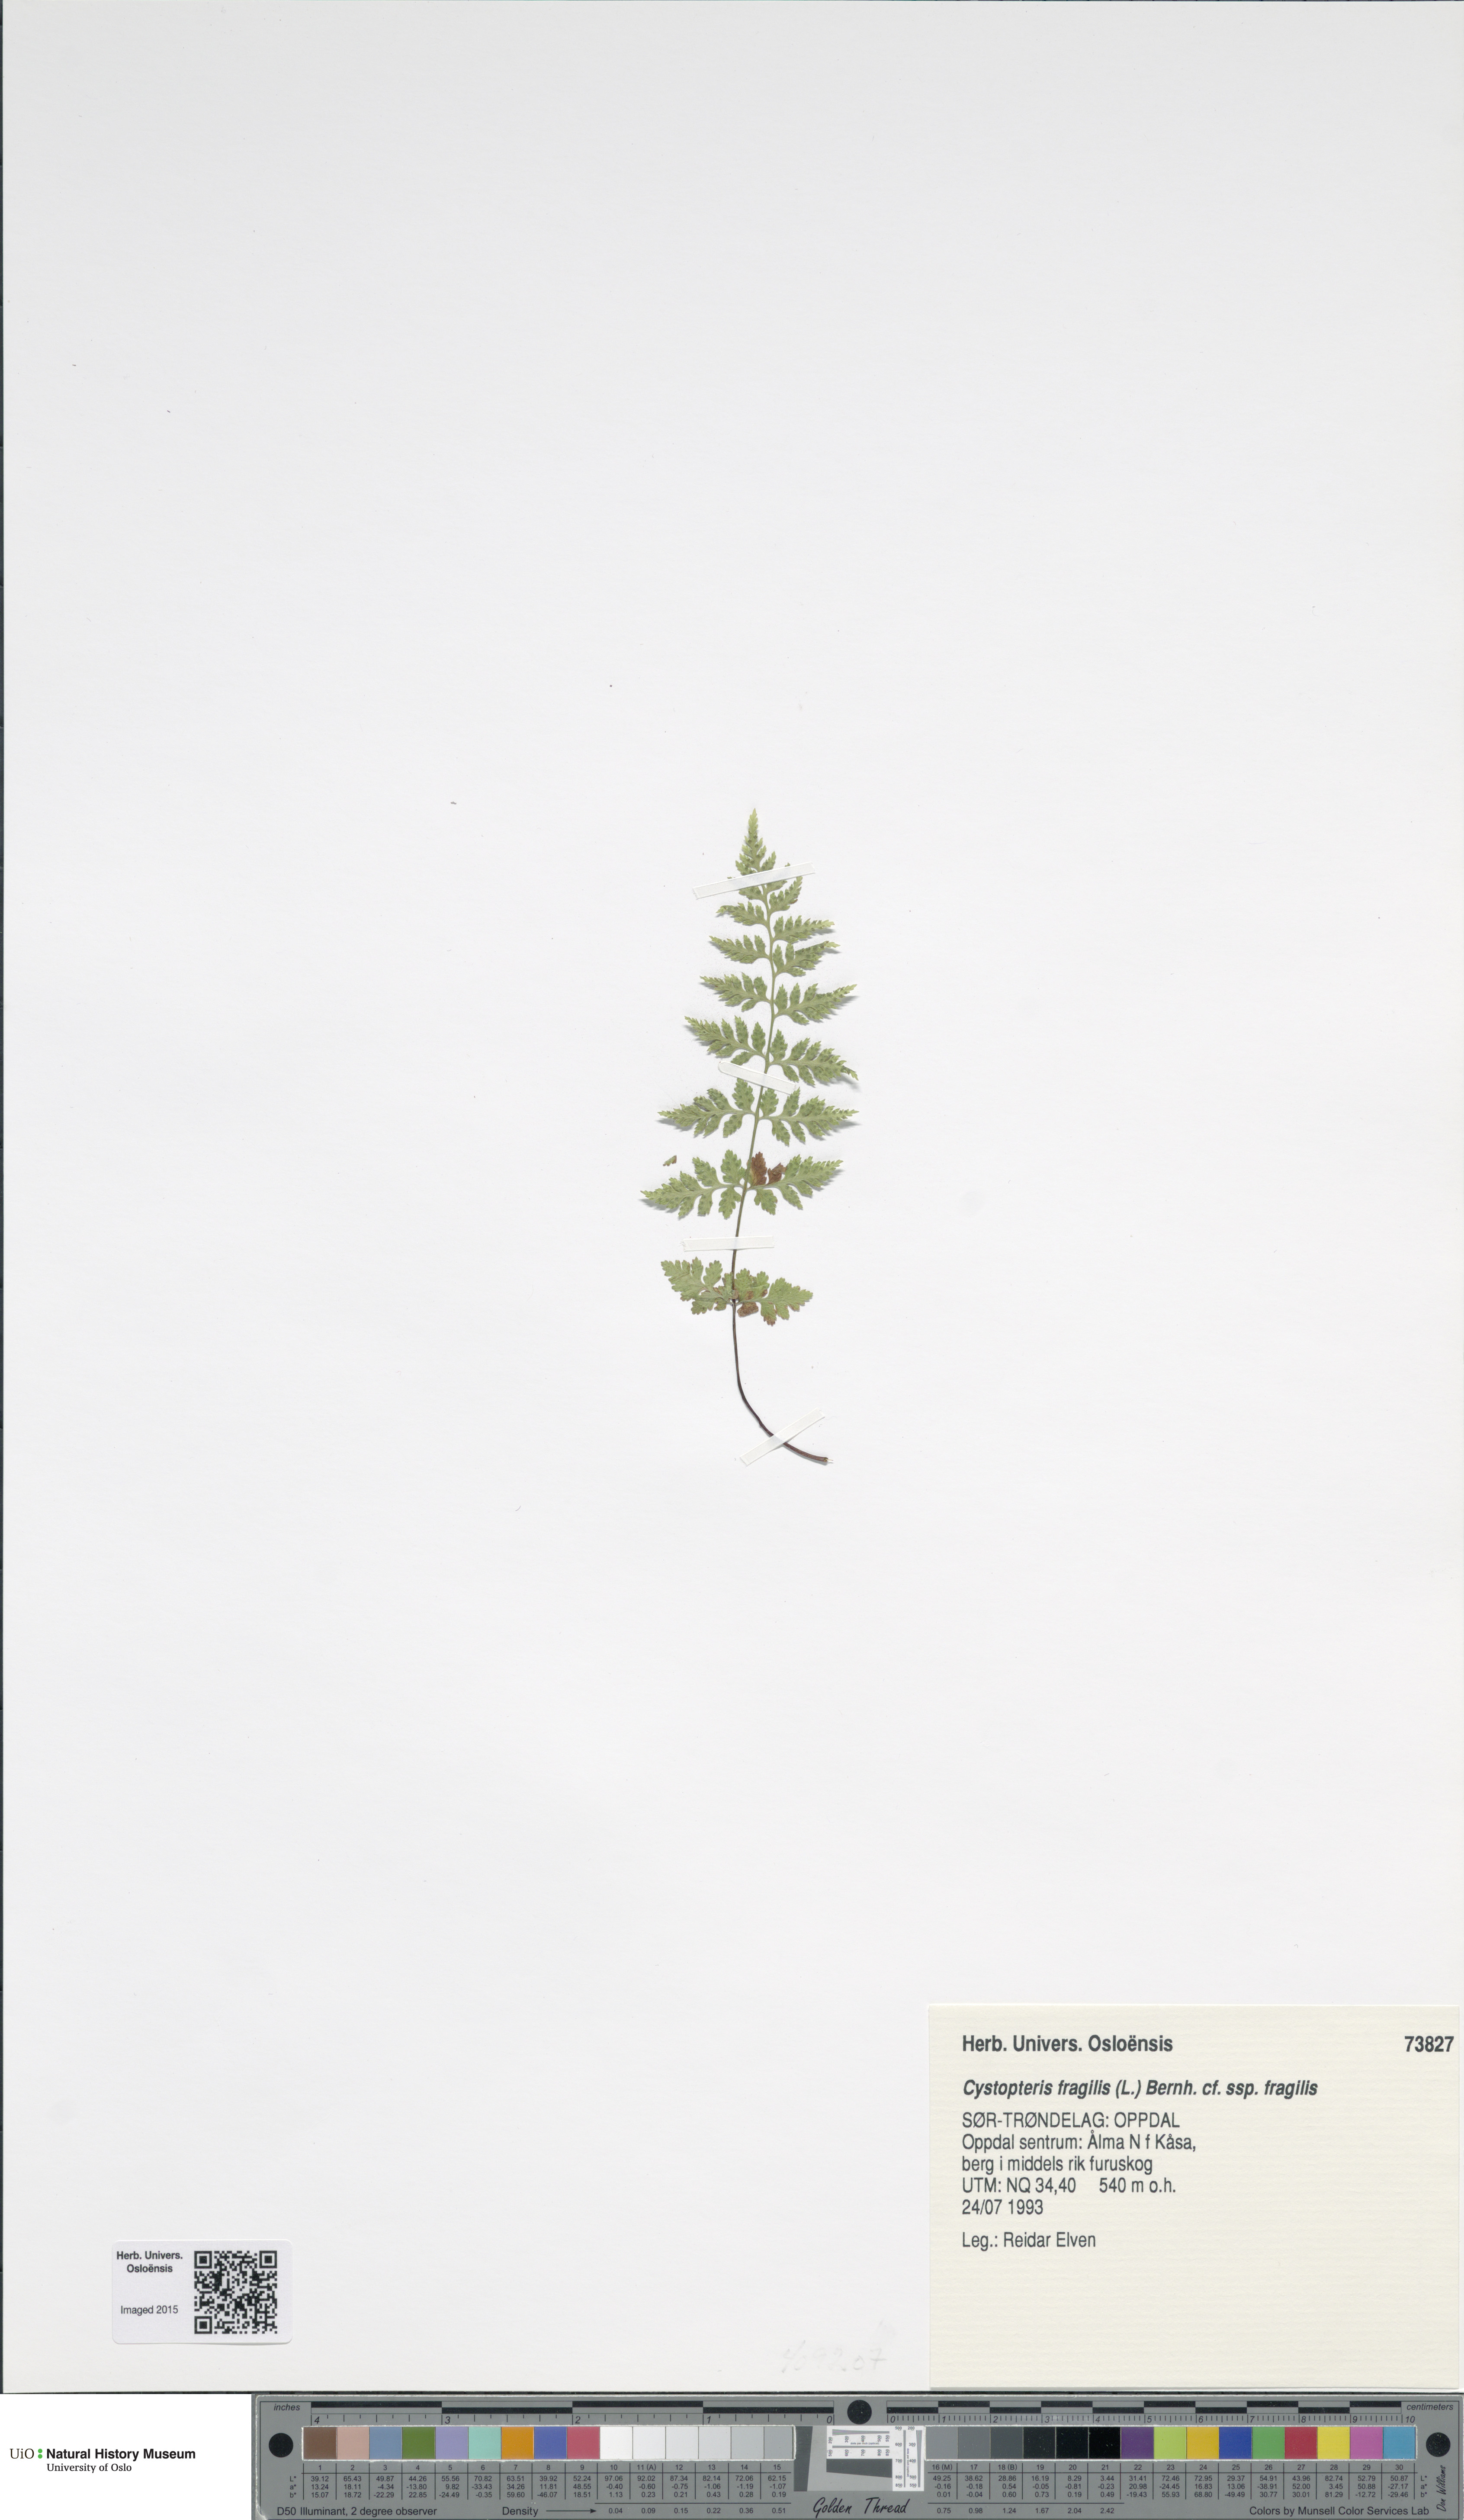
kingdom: Plantae
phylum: Tracheophyta
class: Polypodiopsida
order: Polypodiales
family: Cystopteridaceae
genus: Cystopteris
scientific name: Cystopteris fragilis
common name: Brittle bladder fern
